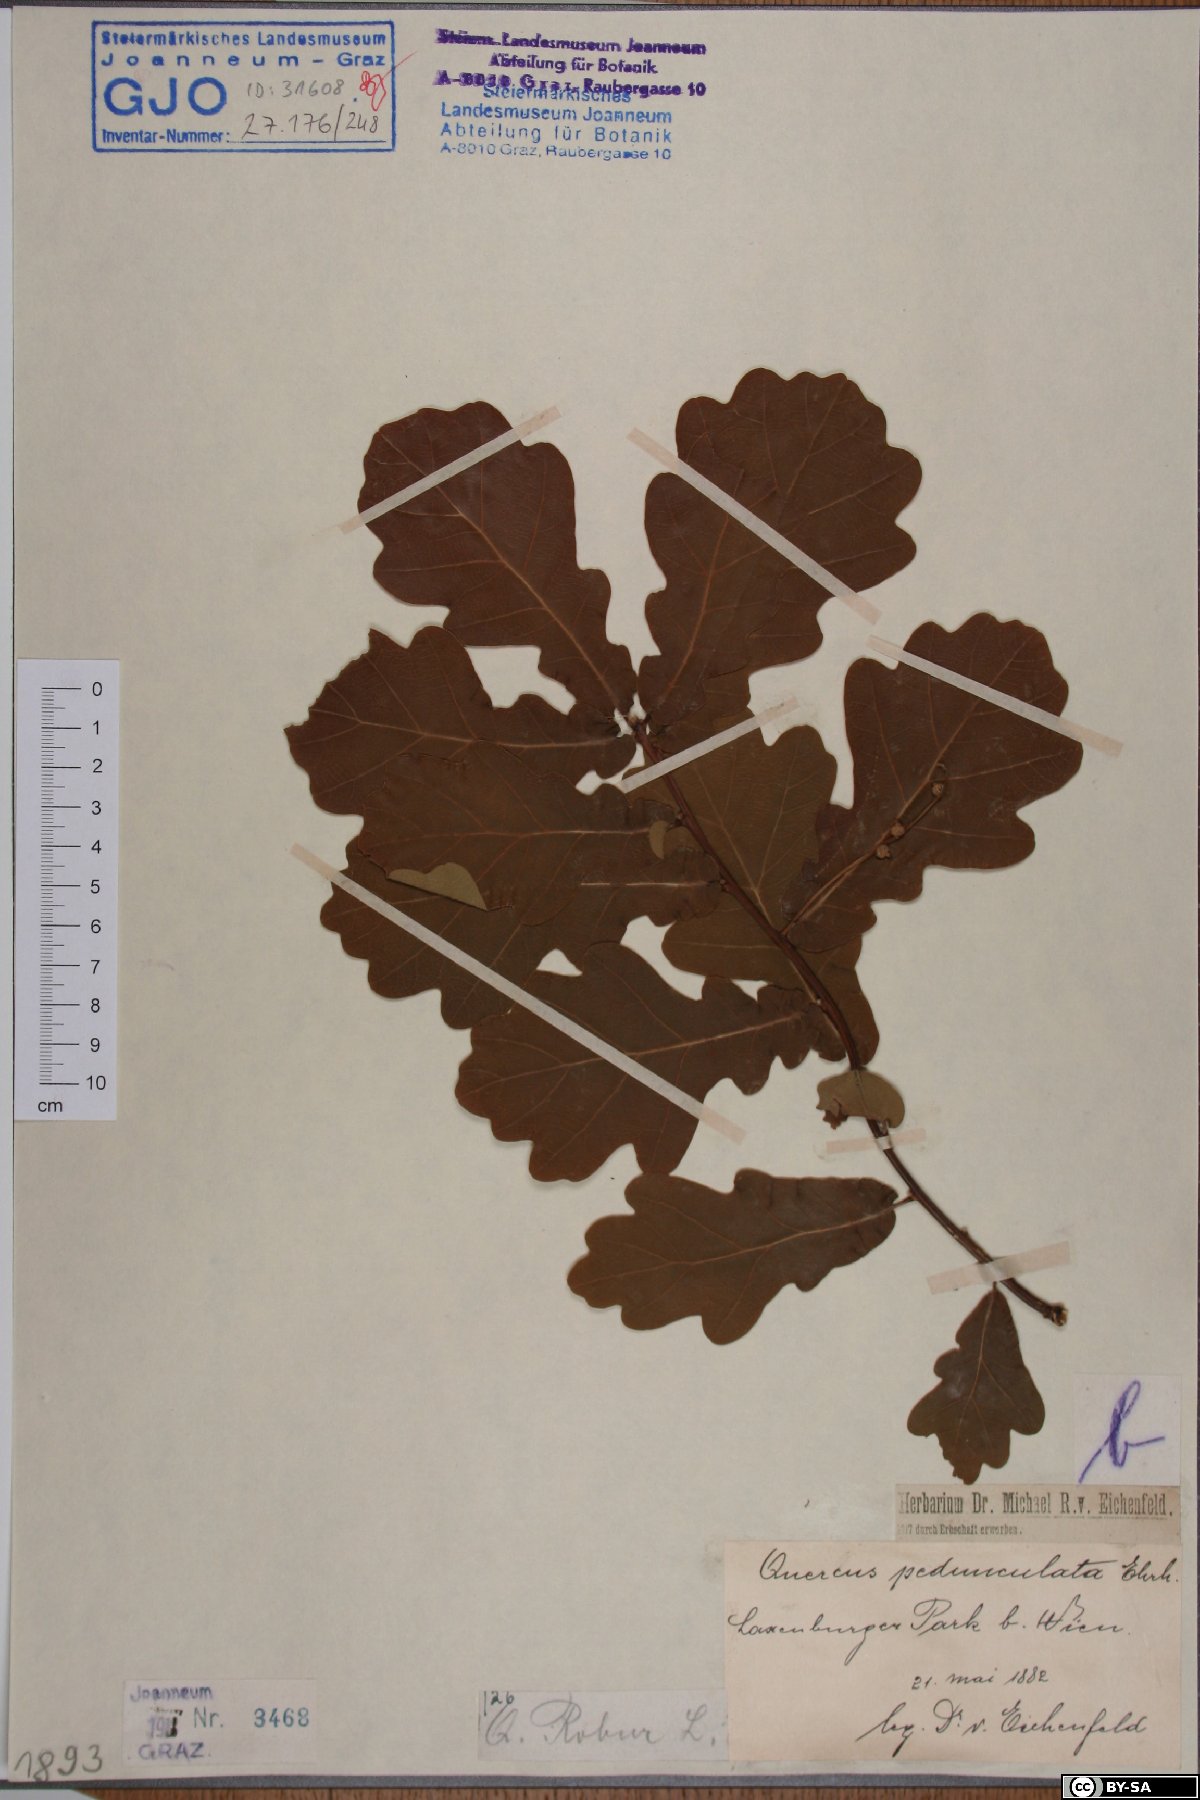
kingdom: Plantae
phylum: Tracheophyta
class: Magnoliopsida
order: Fagales
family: Fagaceae
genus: Quercus
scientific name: Quercus robur
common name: Pedunculate oak
